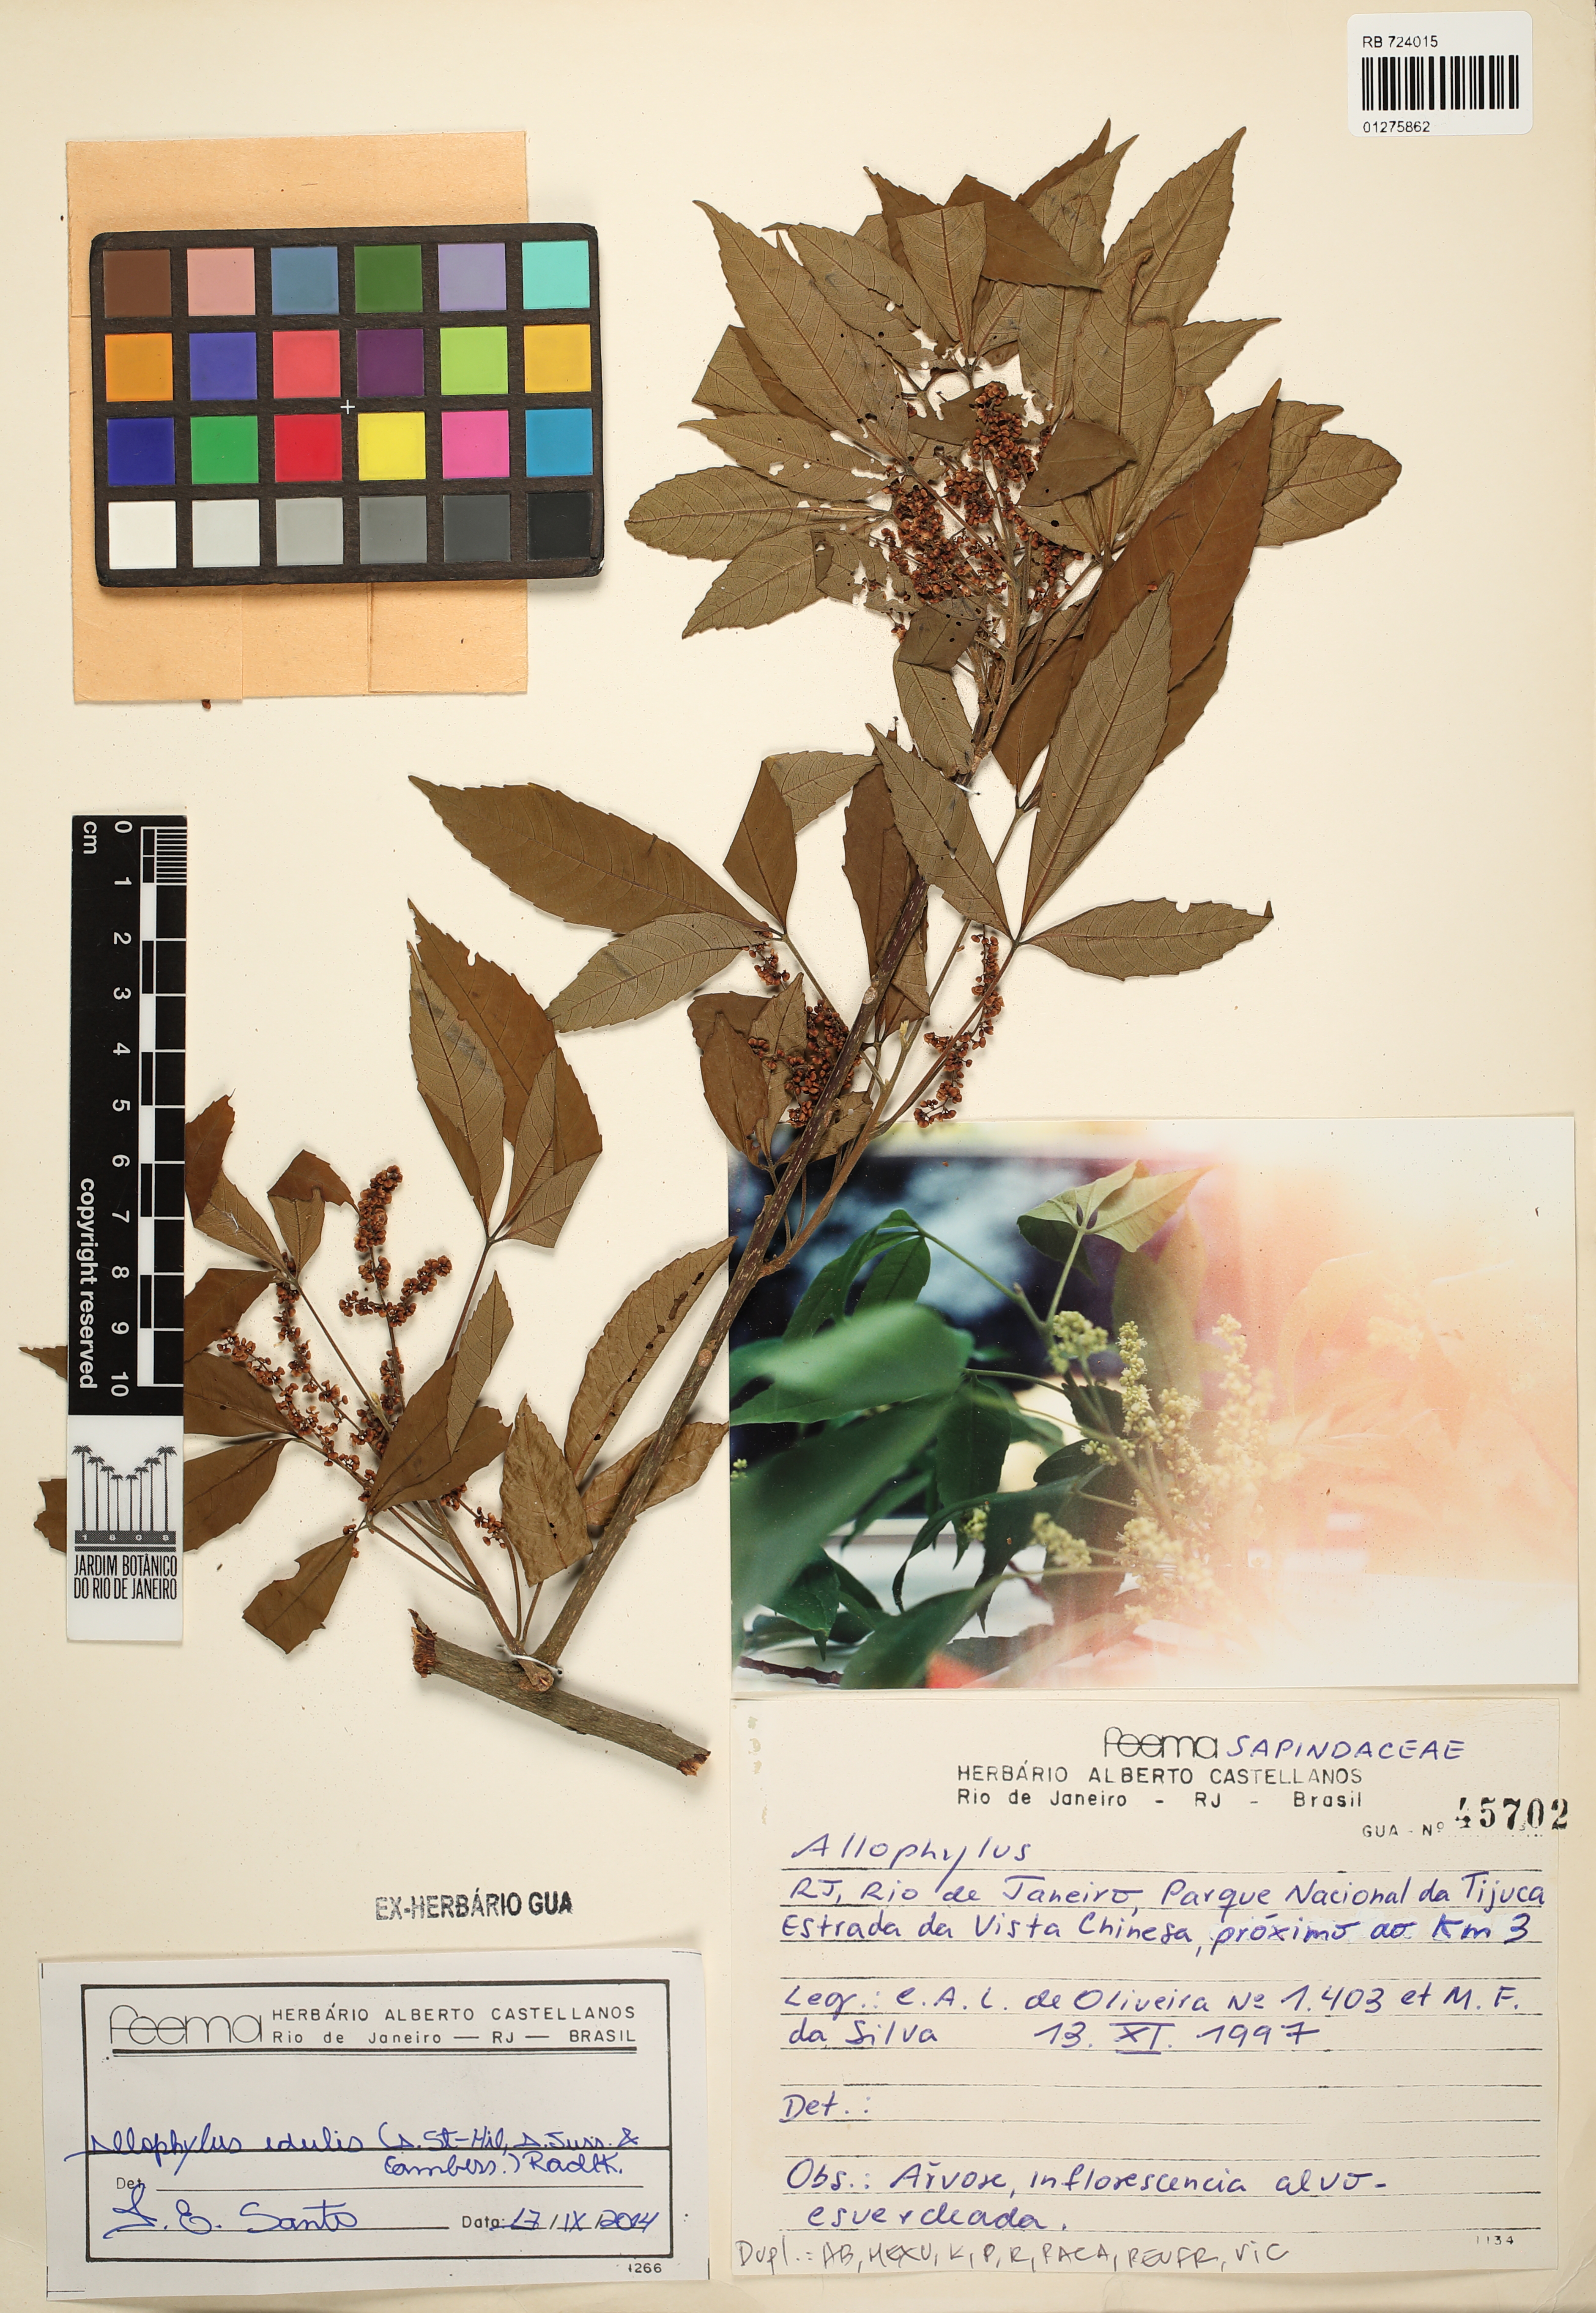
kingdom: Plantae
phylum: Tracheophyta
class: Magnoliopsida
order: Sapindales
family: Sapindaceae
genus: Allophylus
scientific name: Allophylus edulis
